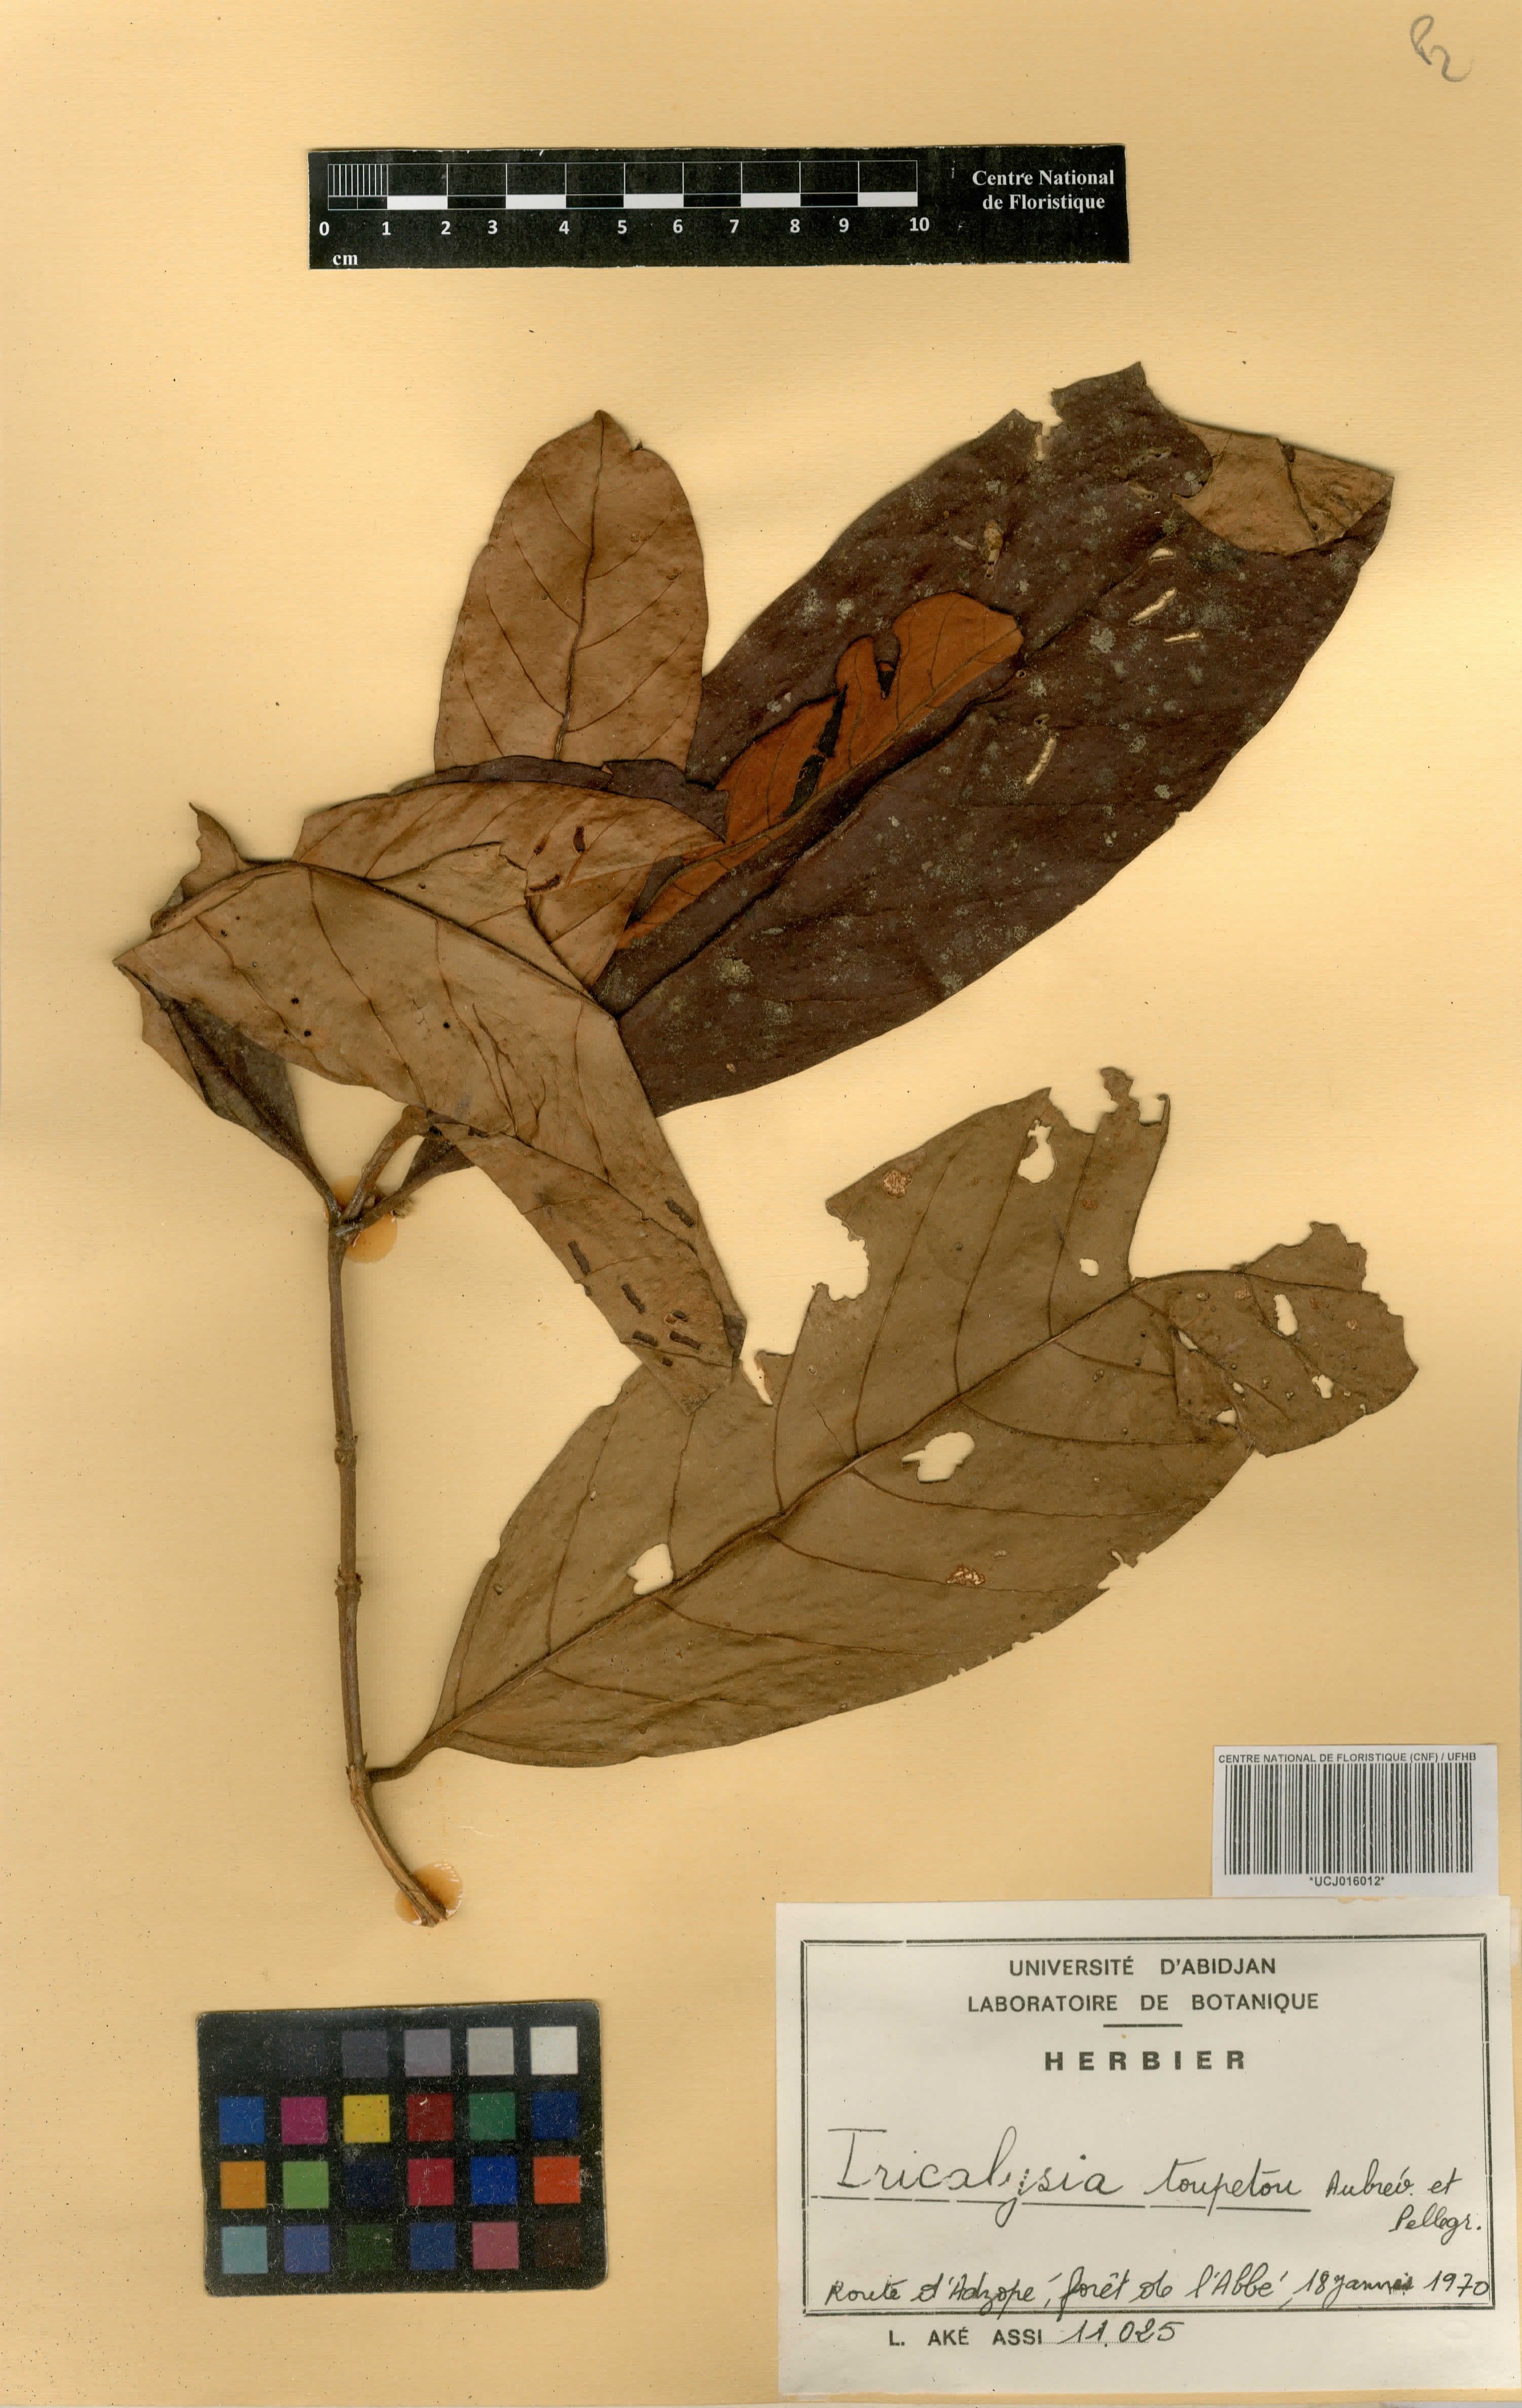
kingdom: Plantae
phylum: Tracheophyta
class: Magnoliopsida
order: Gentianales
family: Rubiaceae
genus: Sericanthe
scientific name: Sericanthe toupetou
